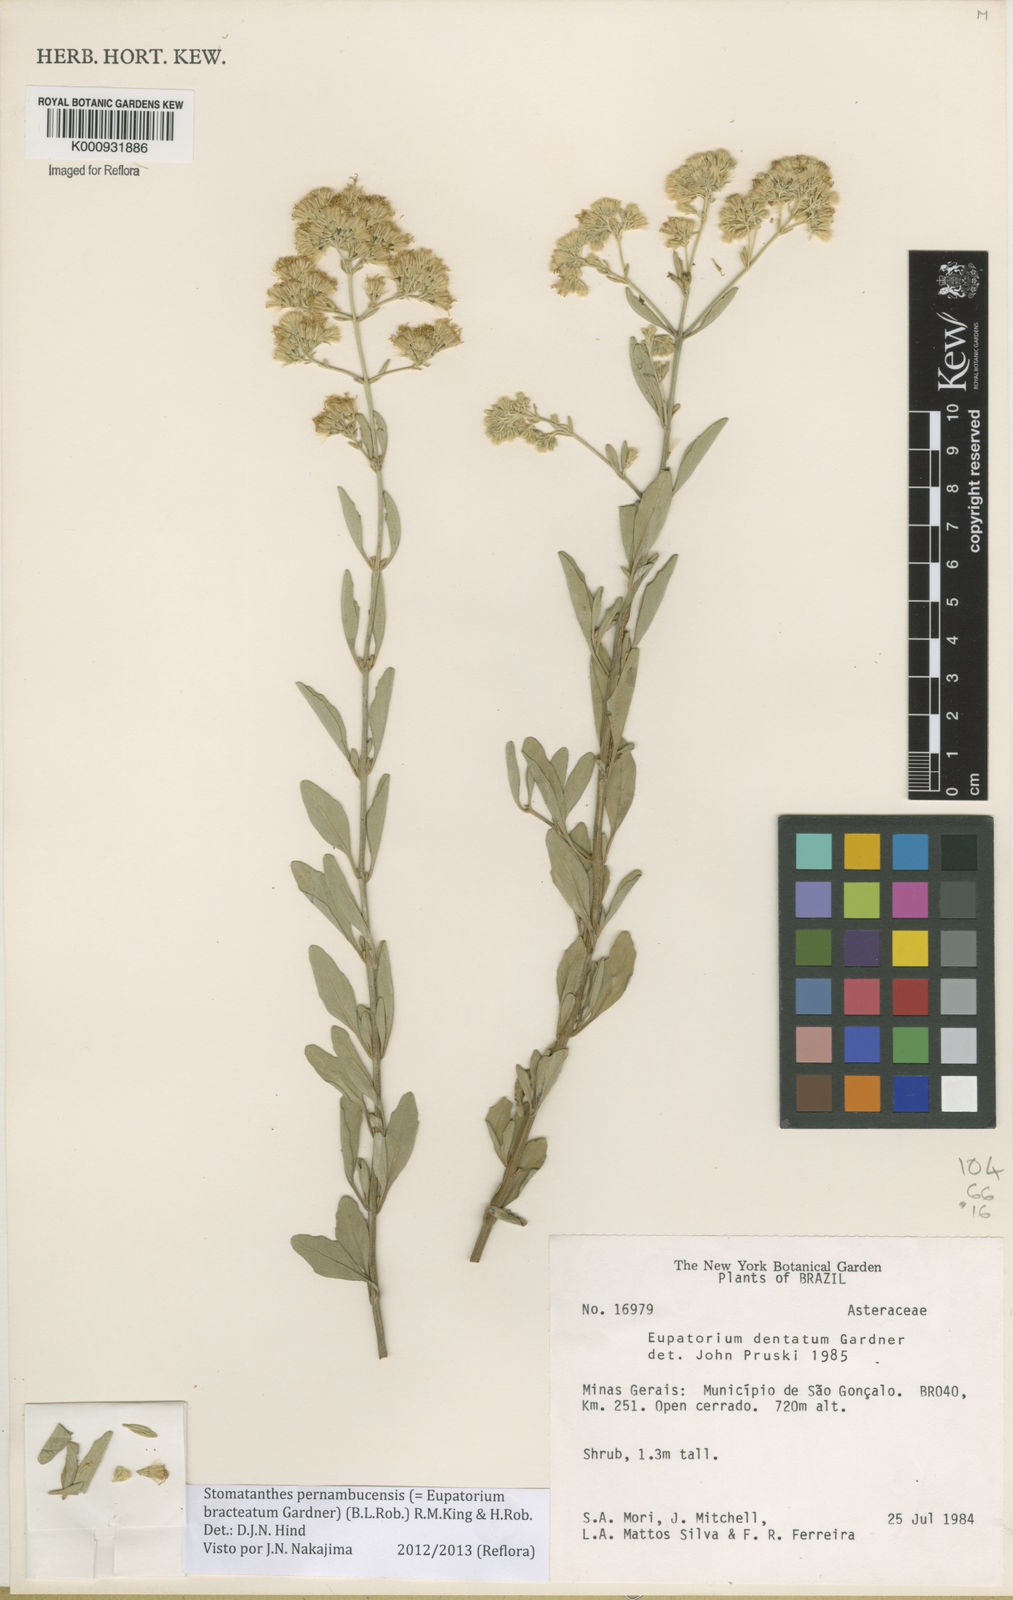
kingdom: Plantae
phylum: Tracheophyta
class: Magnoliopsida
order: Asterales
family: Asteraceae
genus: Stomatanthes
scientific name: Stomatanthes pernambucensis
